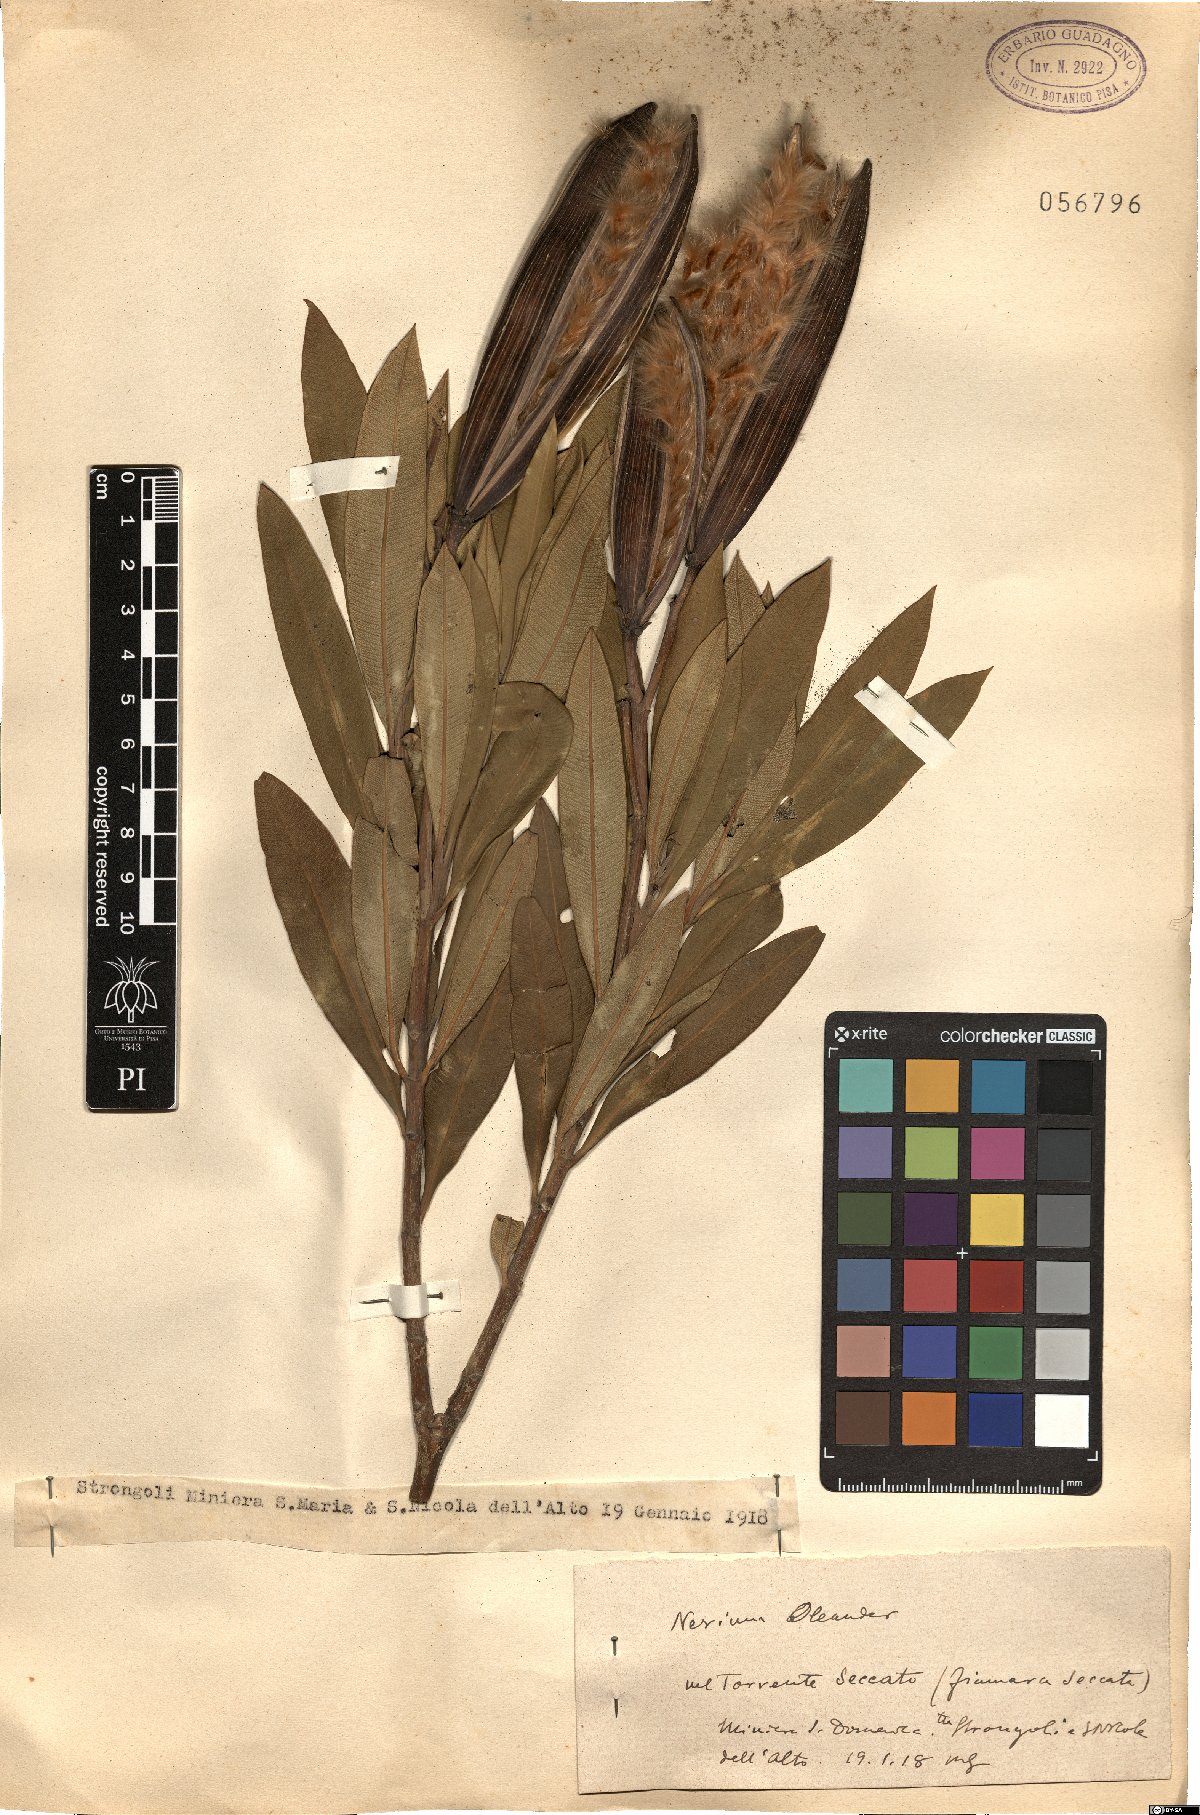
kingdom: Plantae
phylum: Tracheophyta
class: Magnoliopsida
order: Gentianales
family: Apocynaceae
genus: Nerium
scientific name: Nerium oleander
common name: Oleander
